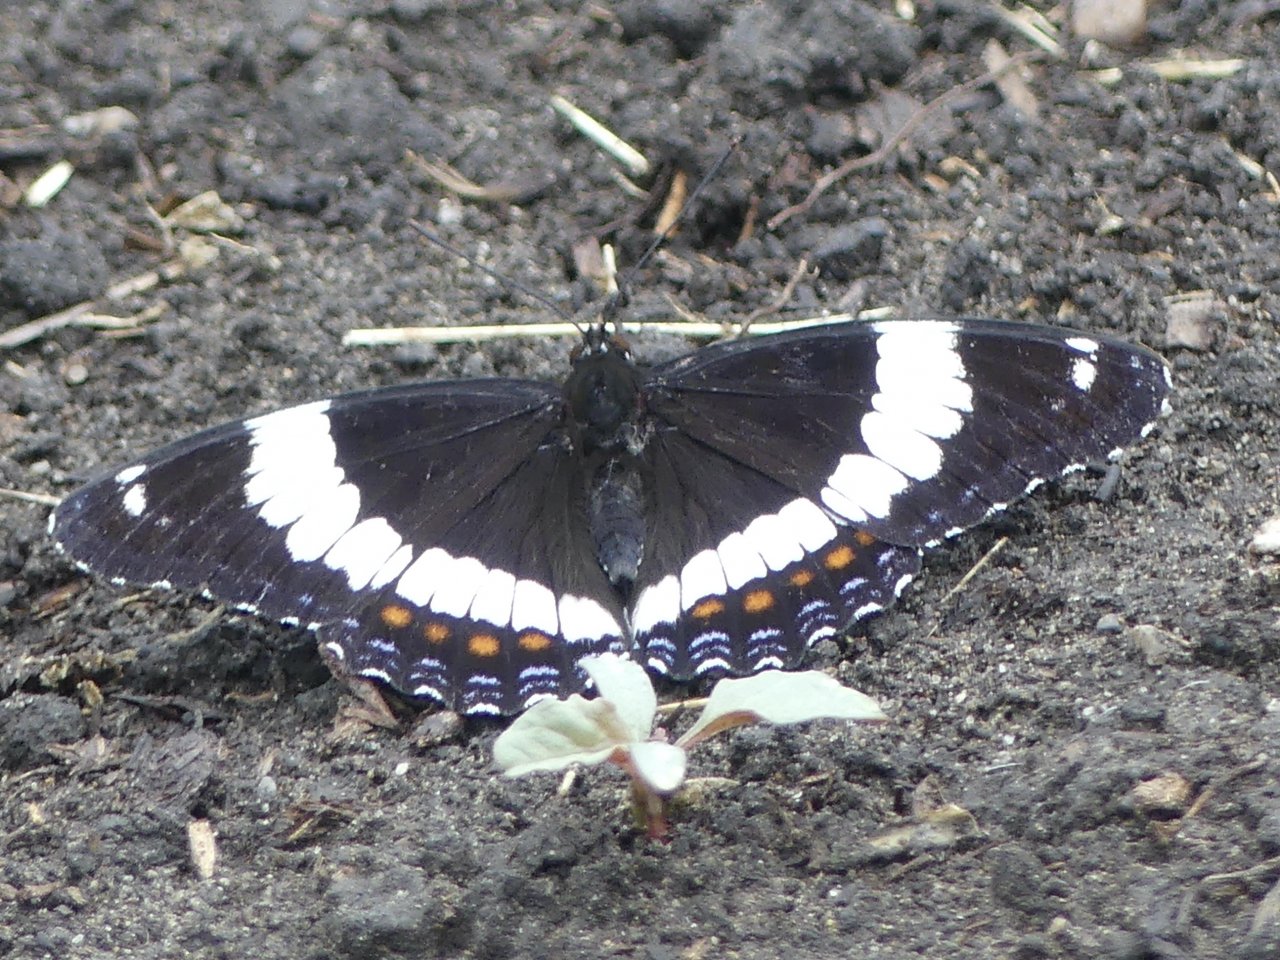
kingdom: Animalia
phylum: Arthropoda
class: Insecta
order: Lepidoptera
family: Nymphalidae
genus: Limenitis
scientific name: Limenitis arthemis
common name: Red-spotted Admiral
